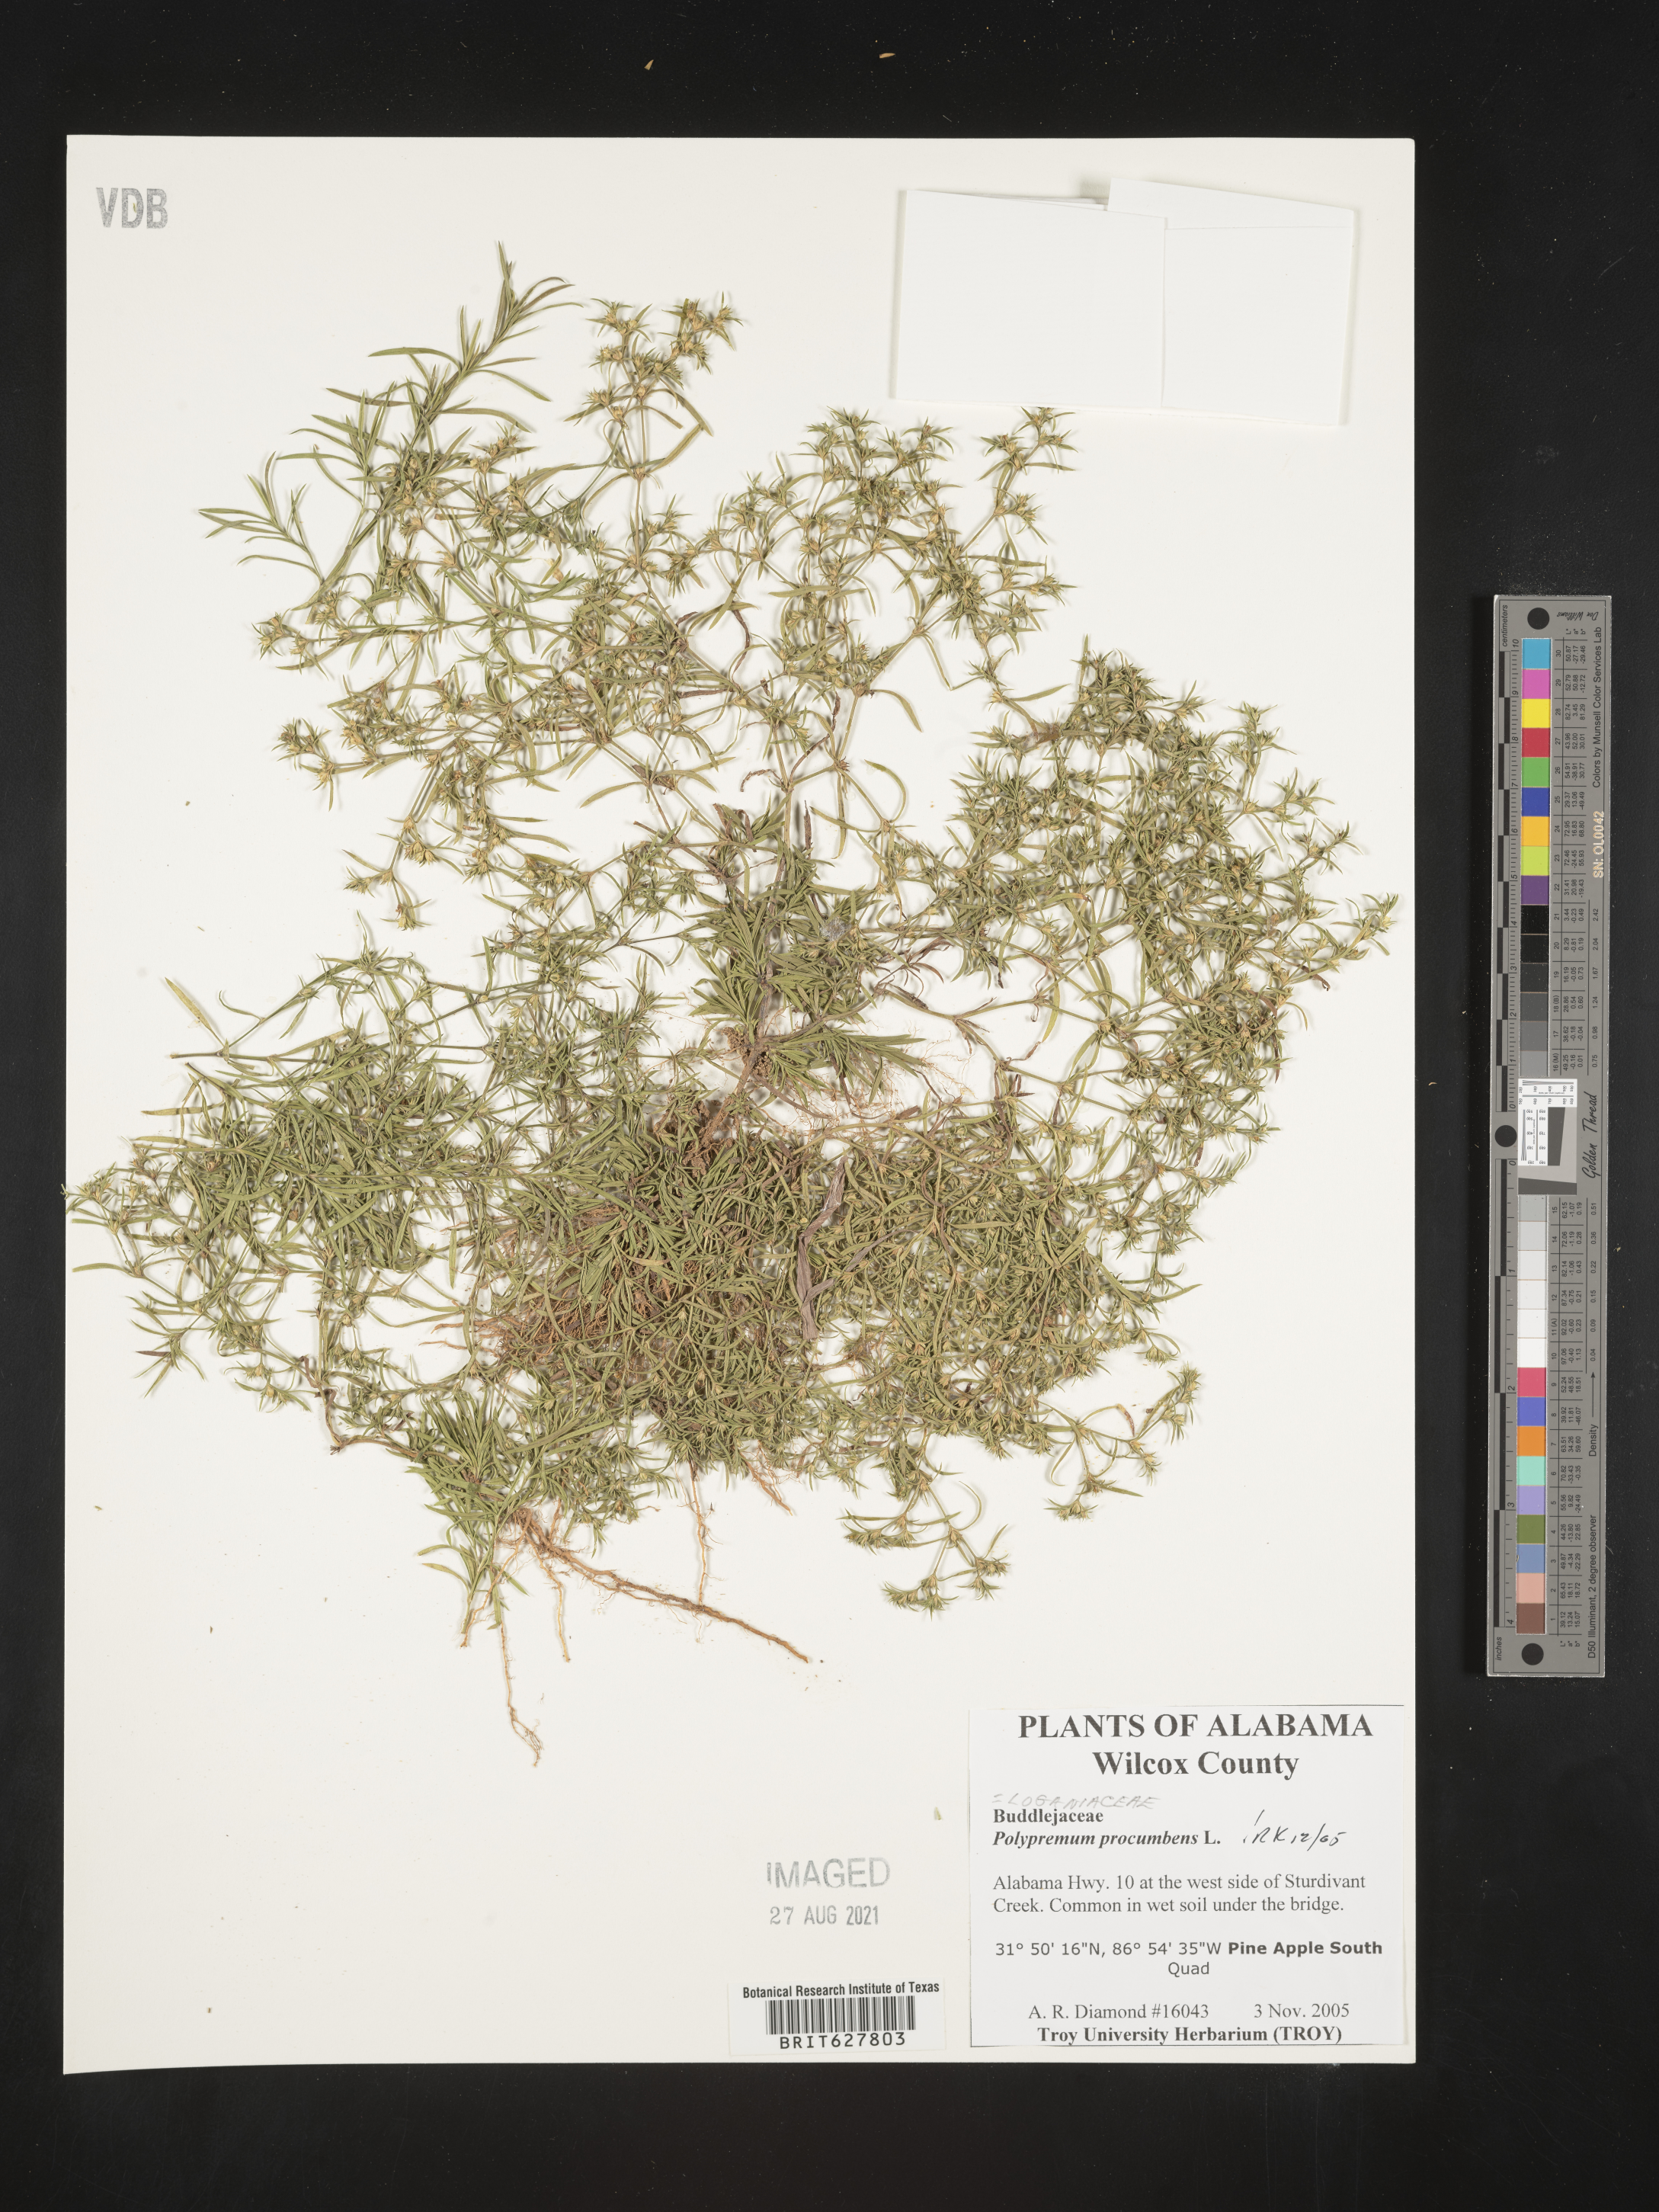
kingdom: Plantae
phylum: Tracheophyta
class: Magnoliopsida
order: Lamiales
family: Tetrachondraceae
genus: Polypremum
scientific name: Polypremum procumbens
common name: Juniper-leaf
